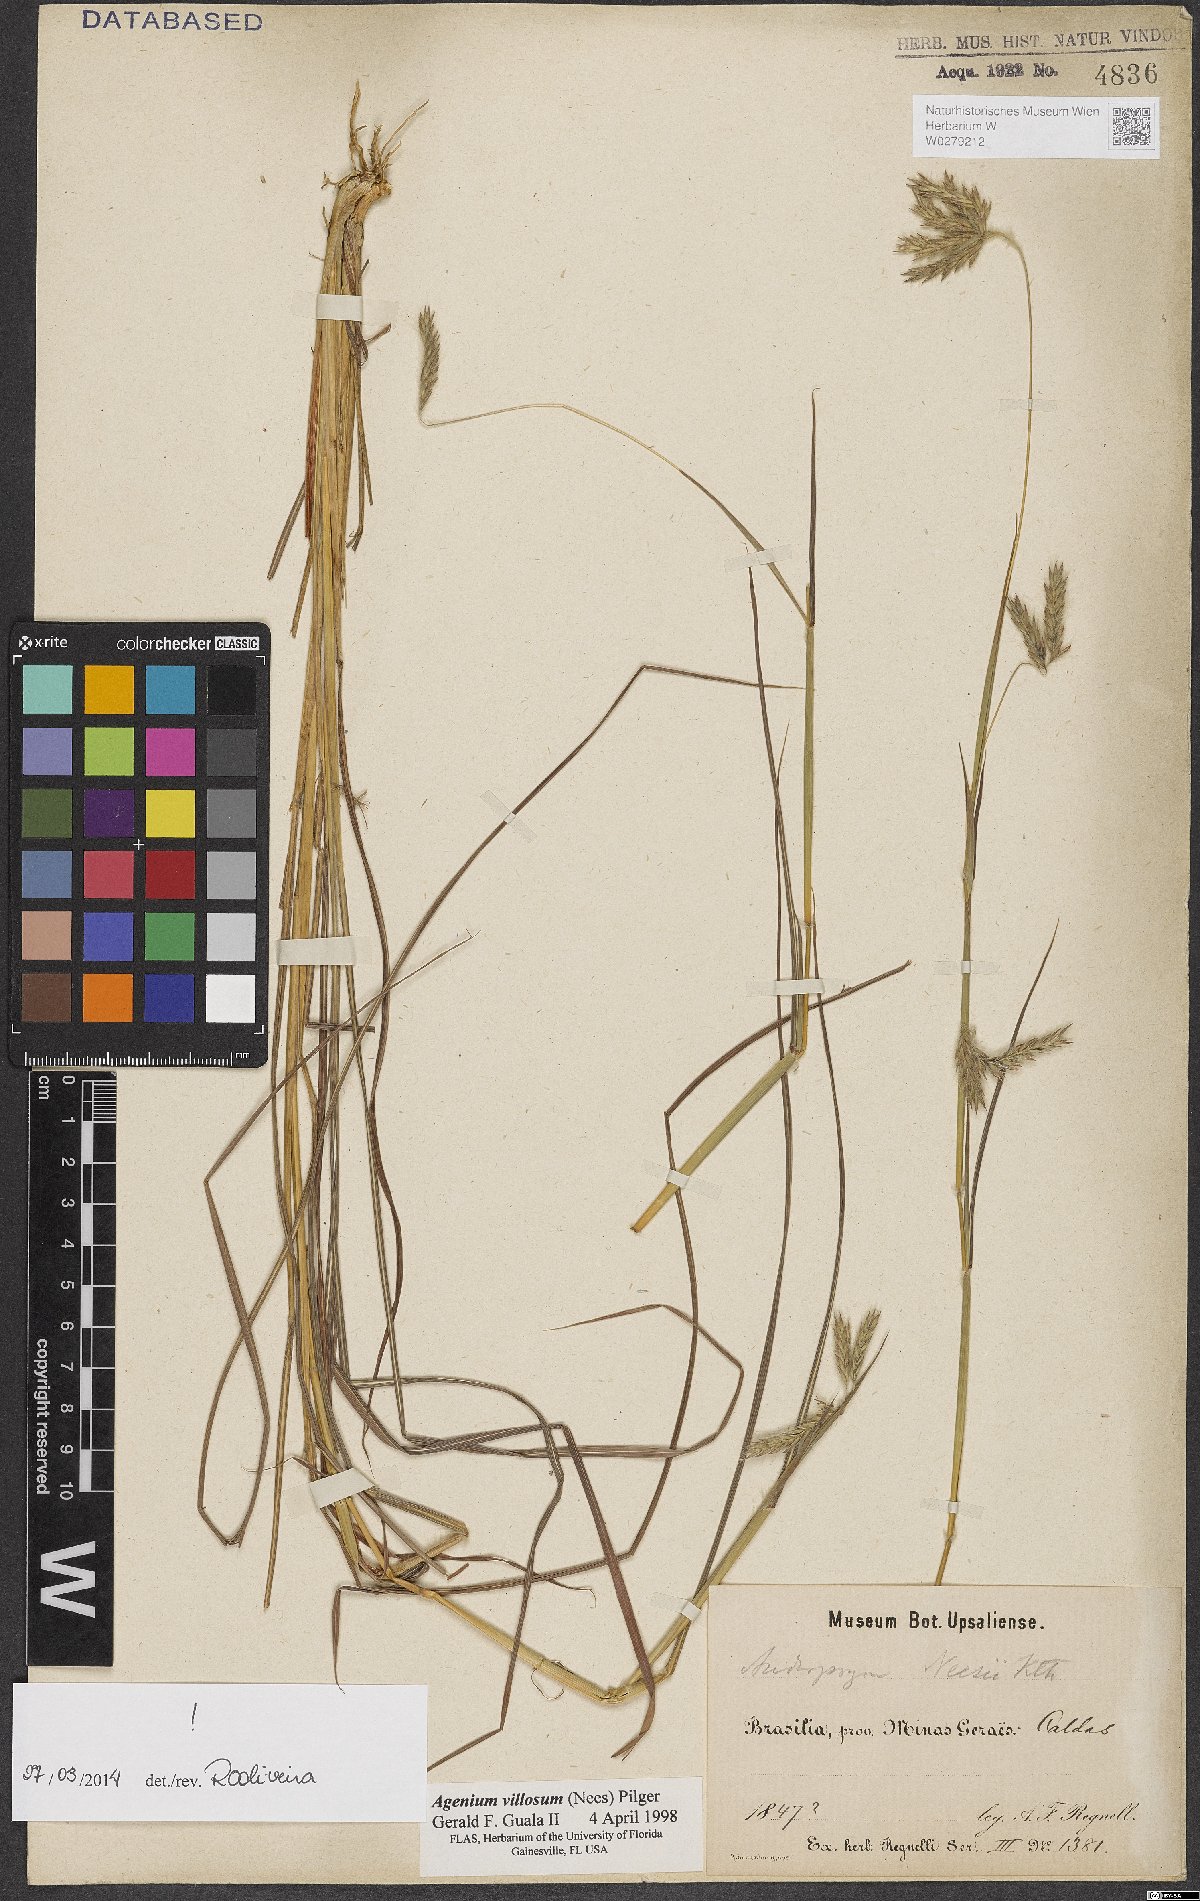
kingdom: Plantae
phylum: Tracheophyta
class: Liliopsida
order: Poales
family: Poaceae
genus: Agenium
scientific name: Agenium villosum
